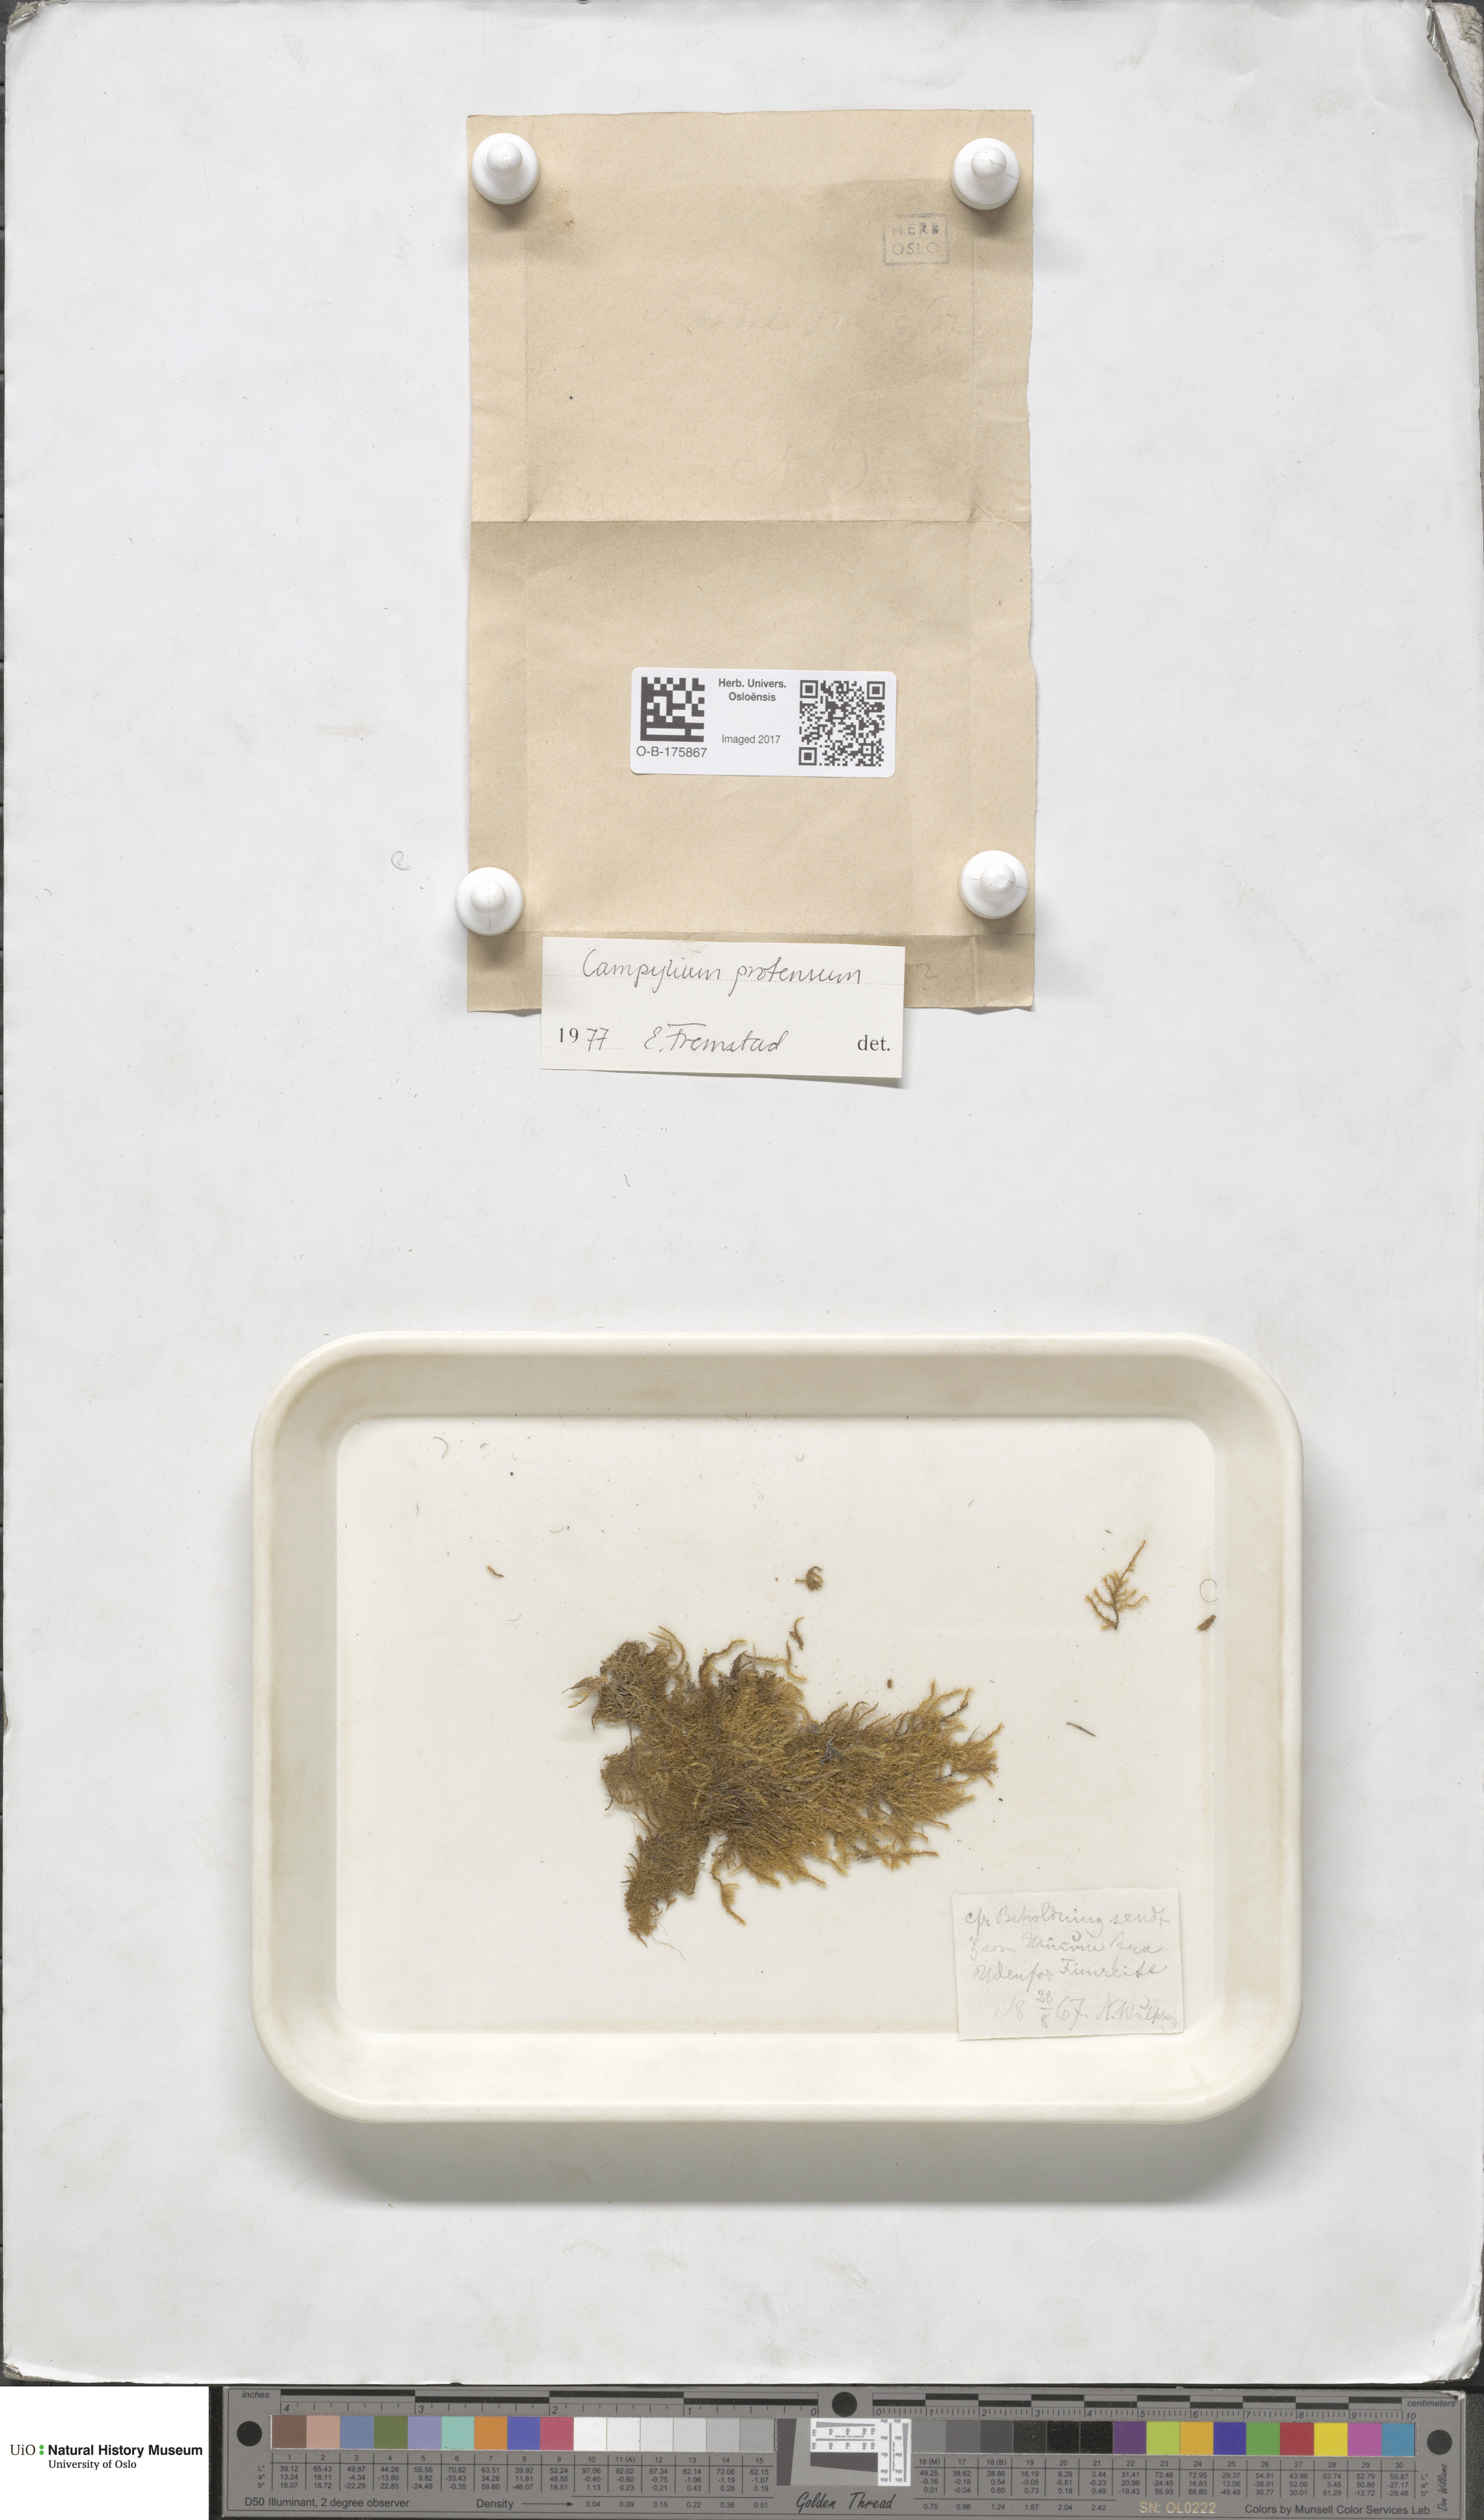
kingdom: Plantae
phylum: Bryophyta
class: Bryopsida
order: Hypnales
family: Amblystegiaceae
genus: Campylium
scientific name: Campylium stellatum
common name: Yellow starry fen moss
